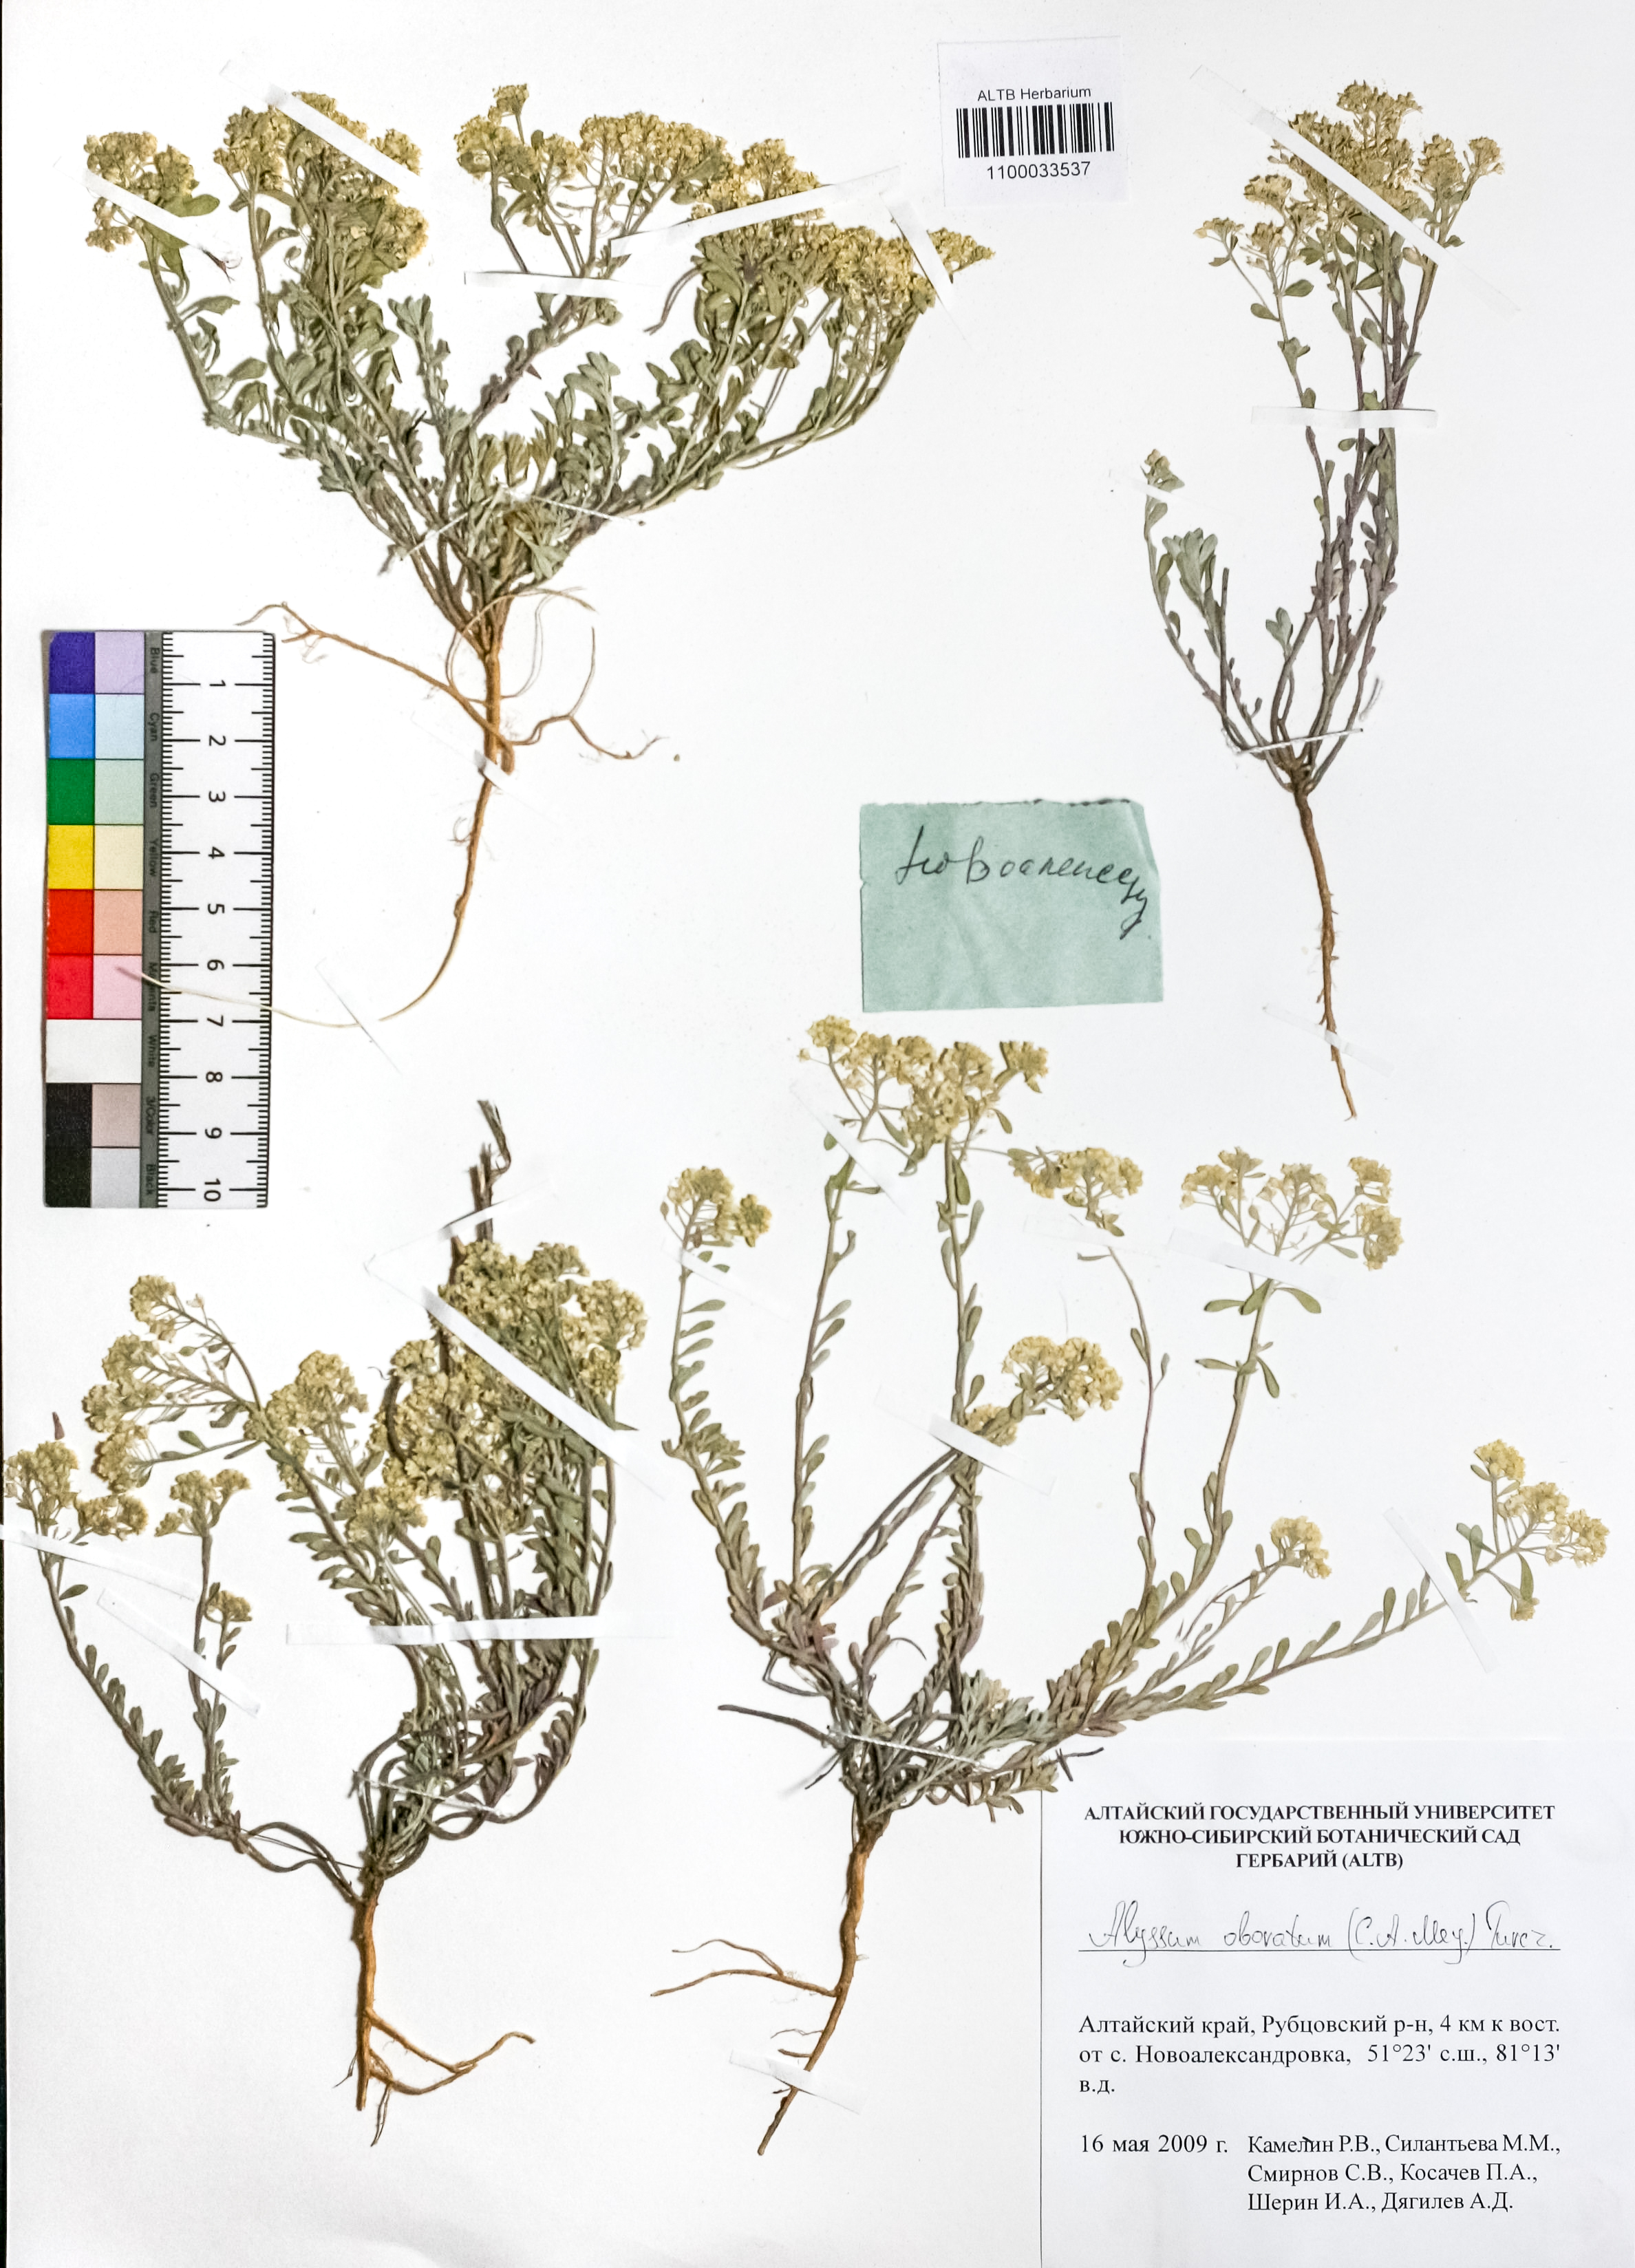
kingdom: Plantae
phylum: Tracheophyta
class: Magnoliopsida
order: Brassicales
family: Brassicaceae
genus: Odontarrhena
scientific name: Odontarrhena obovata
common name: American alyssum
